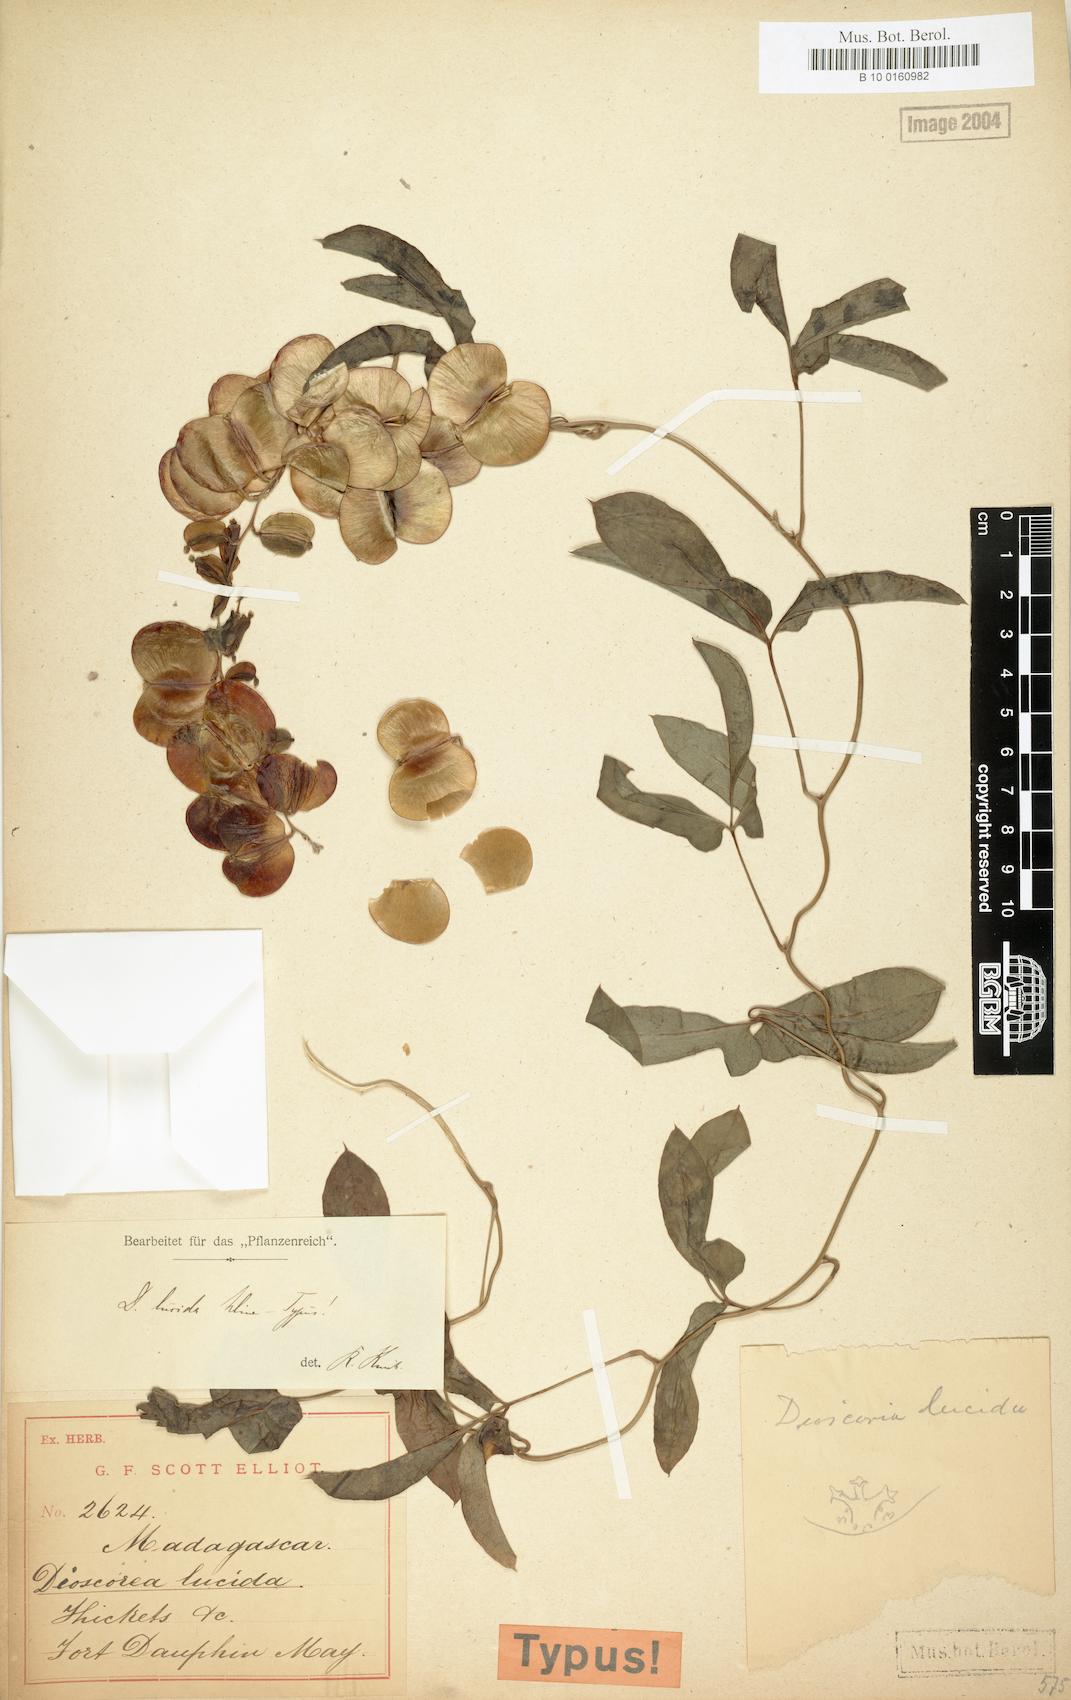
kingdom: Plantae
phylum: Tracheophyta
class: Liliopsida
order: Dioscoreales
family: Dioscoreaceae
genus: Dioscorea
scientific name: Dioscorea bemarivensis
